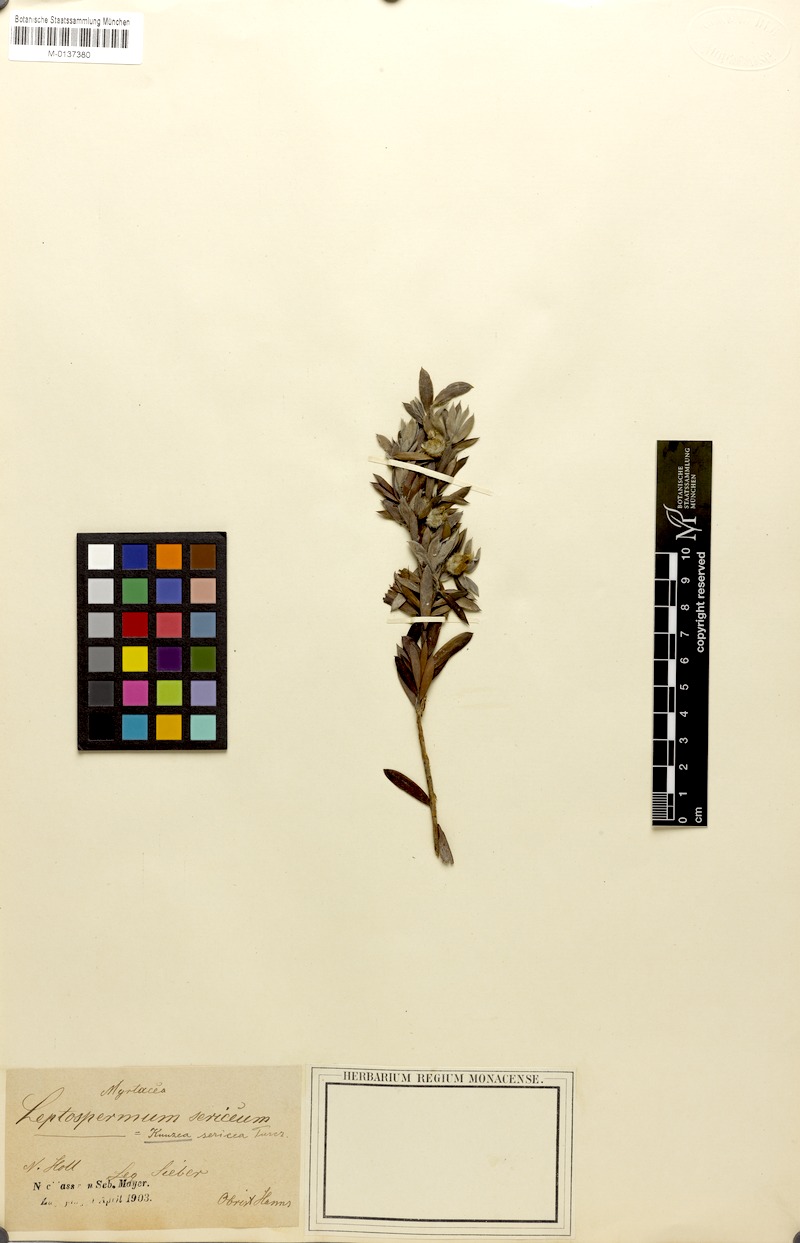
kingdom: Plantae
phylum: Tracheophyta
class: Magnoliopsida
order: Myrtales
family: Myrtaceae
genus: Kunzea
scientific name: Kunzea pulchella
